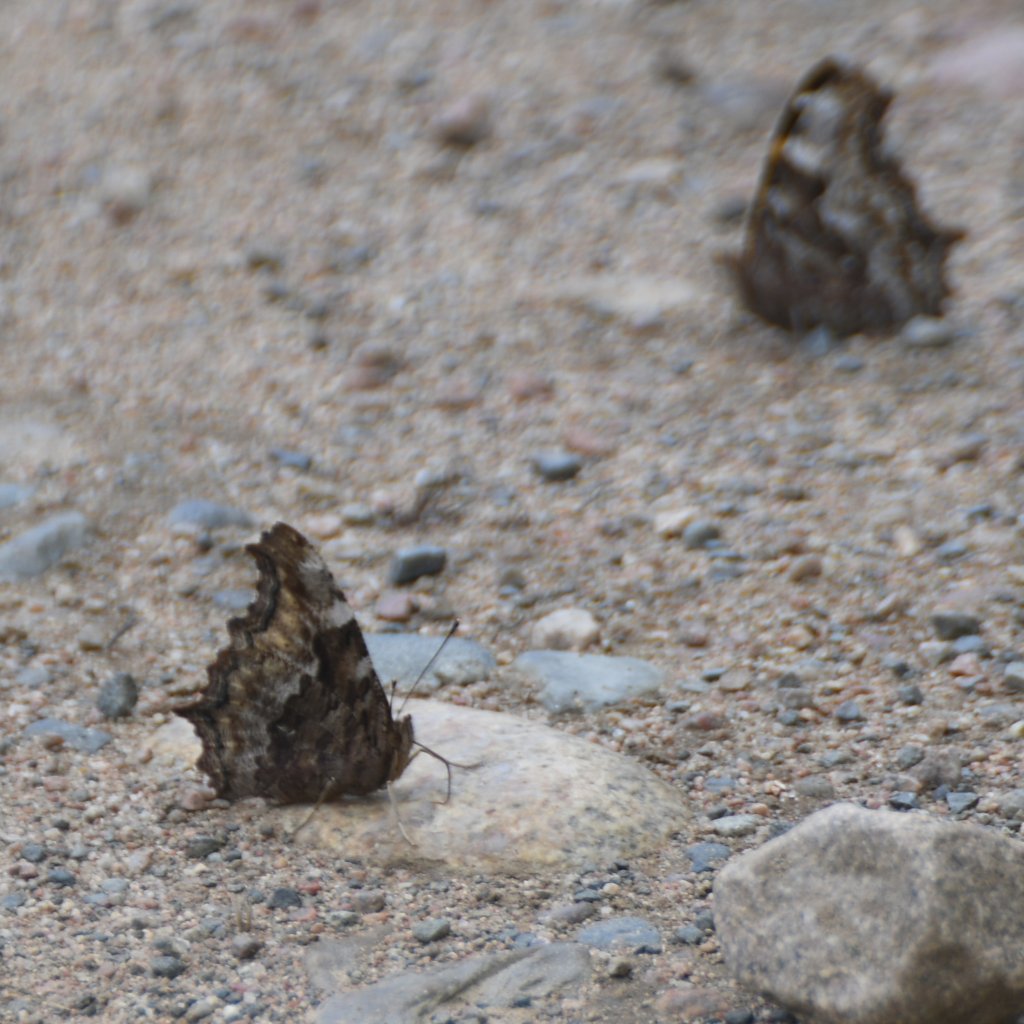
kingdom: Animalia
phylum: Arthropoda
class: Insecta
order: Lepidoptera
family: Nymphalidae
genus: Polygonia
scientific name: Polygonia vaualbum
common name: Compton Tortoiseshell
